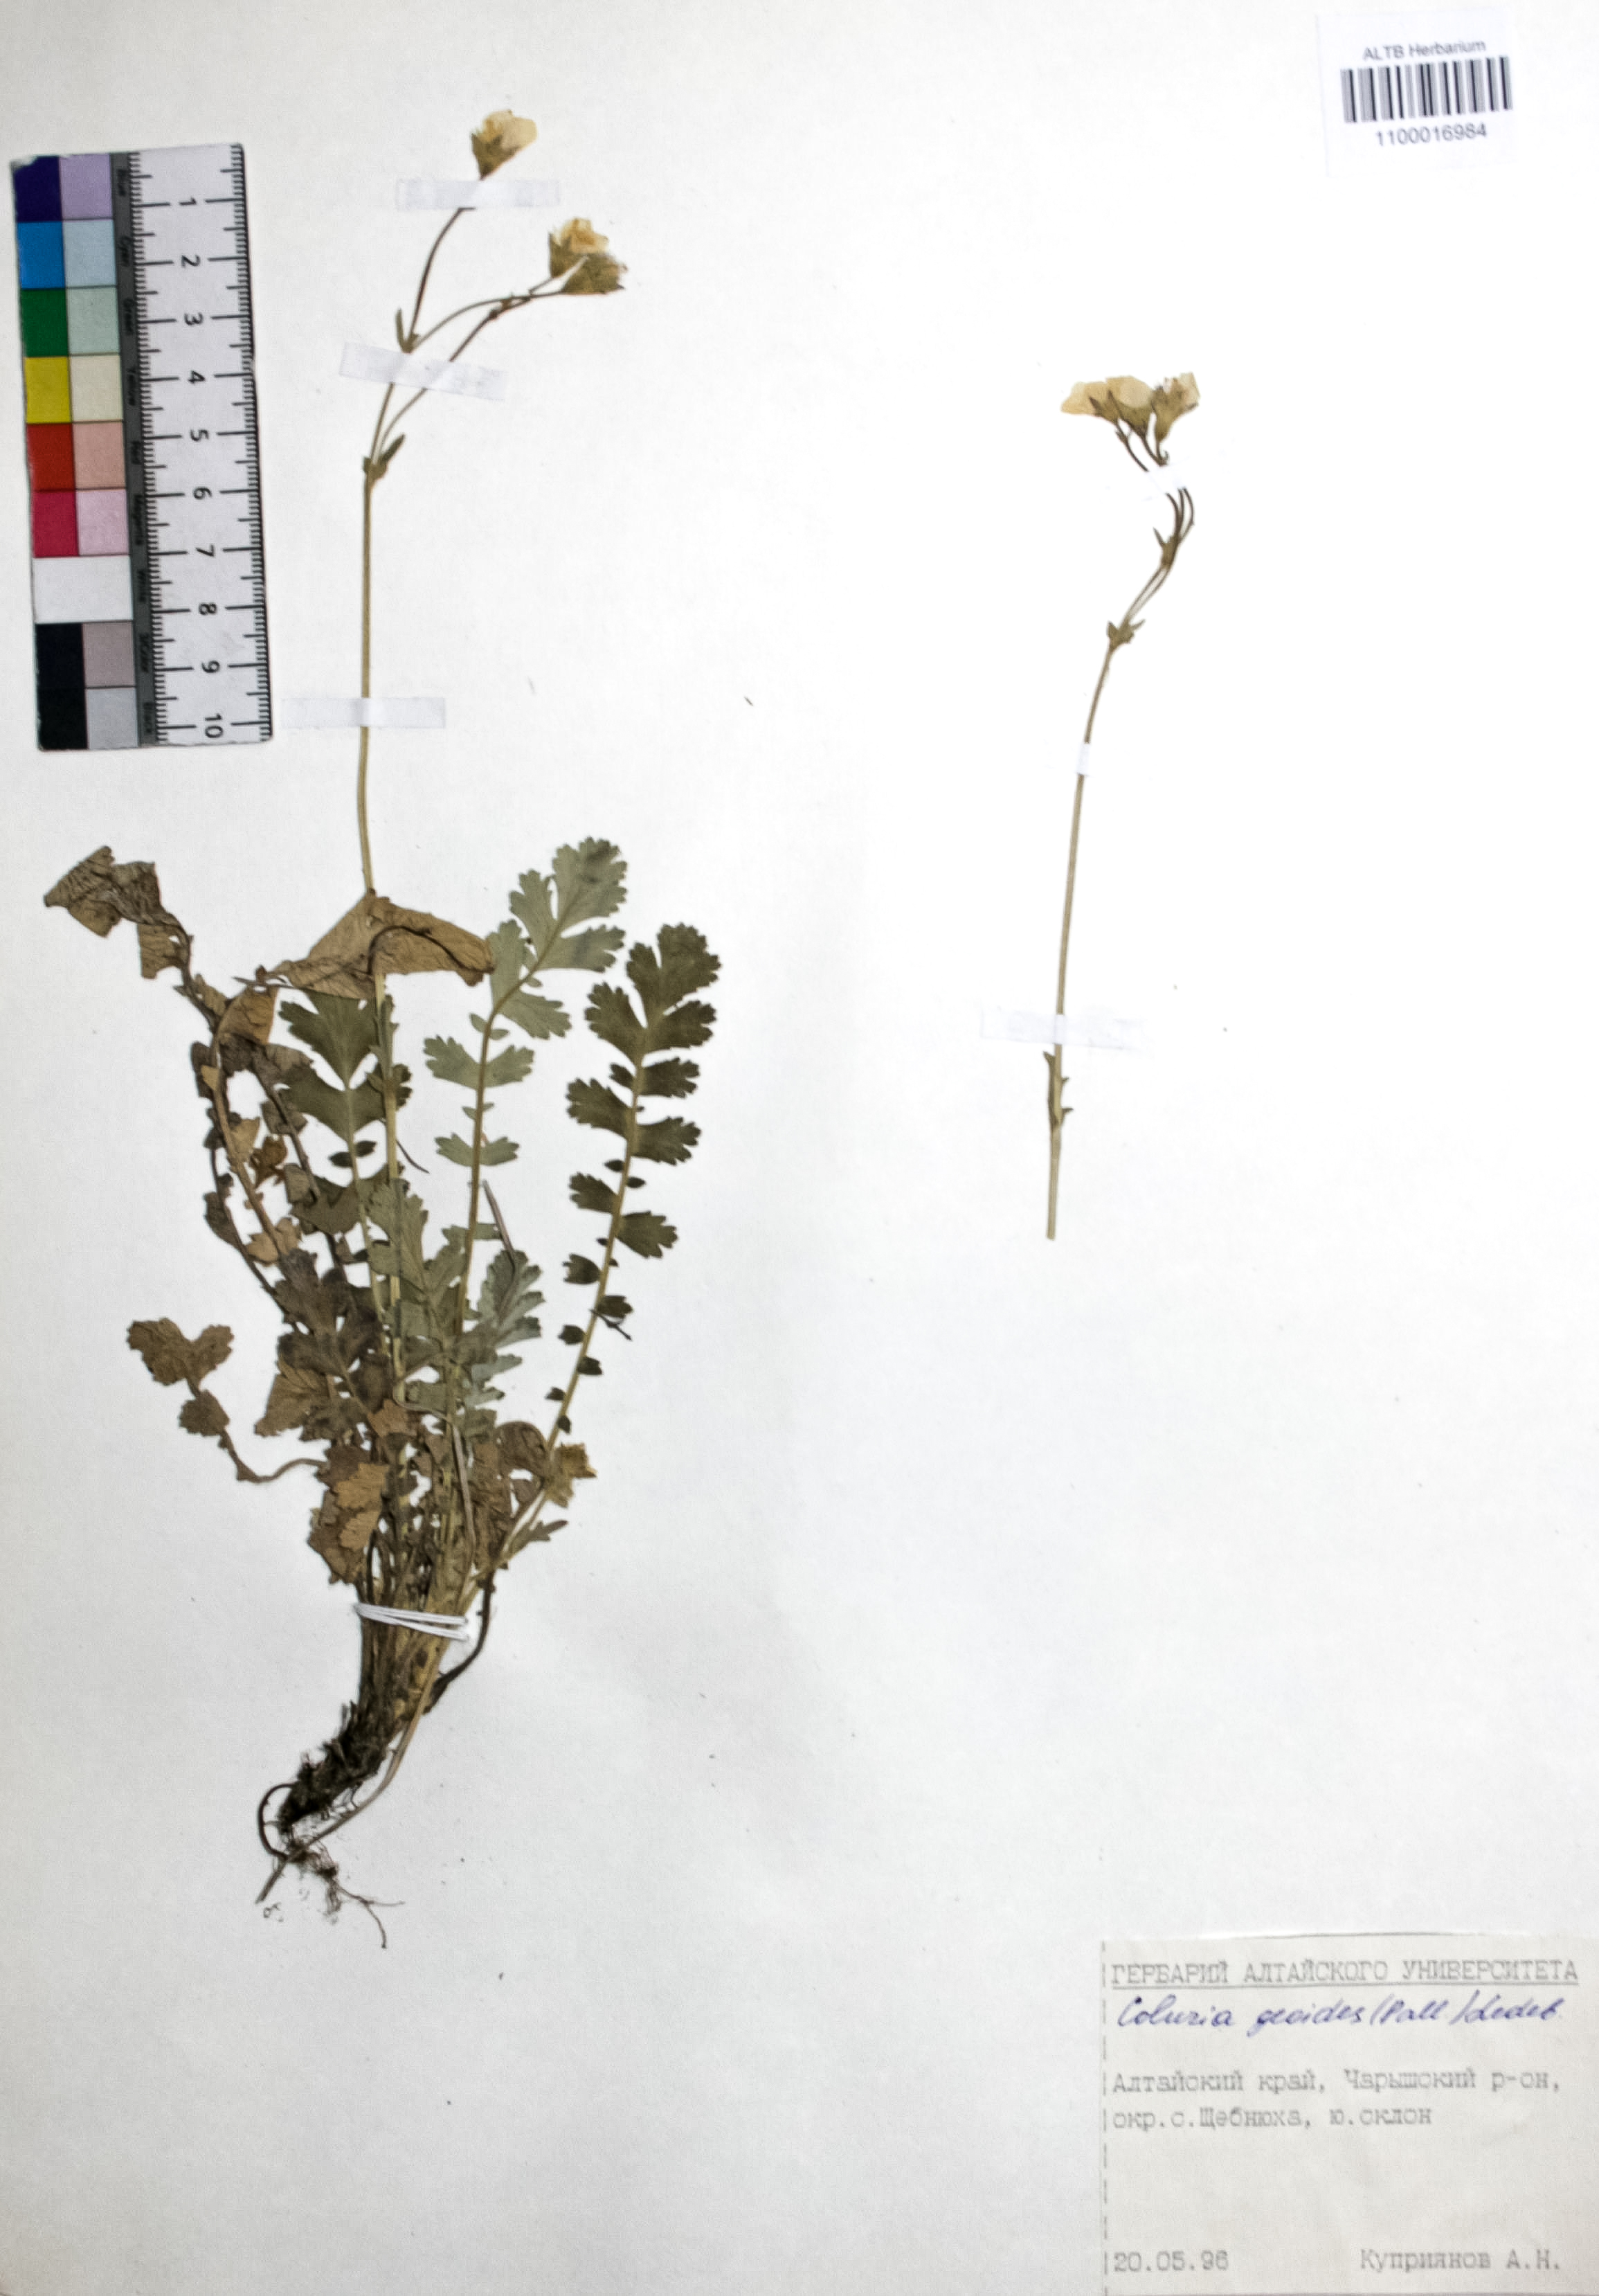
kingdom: Plantae
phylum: Tracheophyta
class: Magnoliopsida
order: Rosales
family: Rosaceae
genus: Geum
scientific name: Geum geoides
